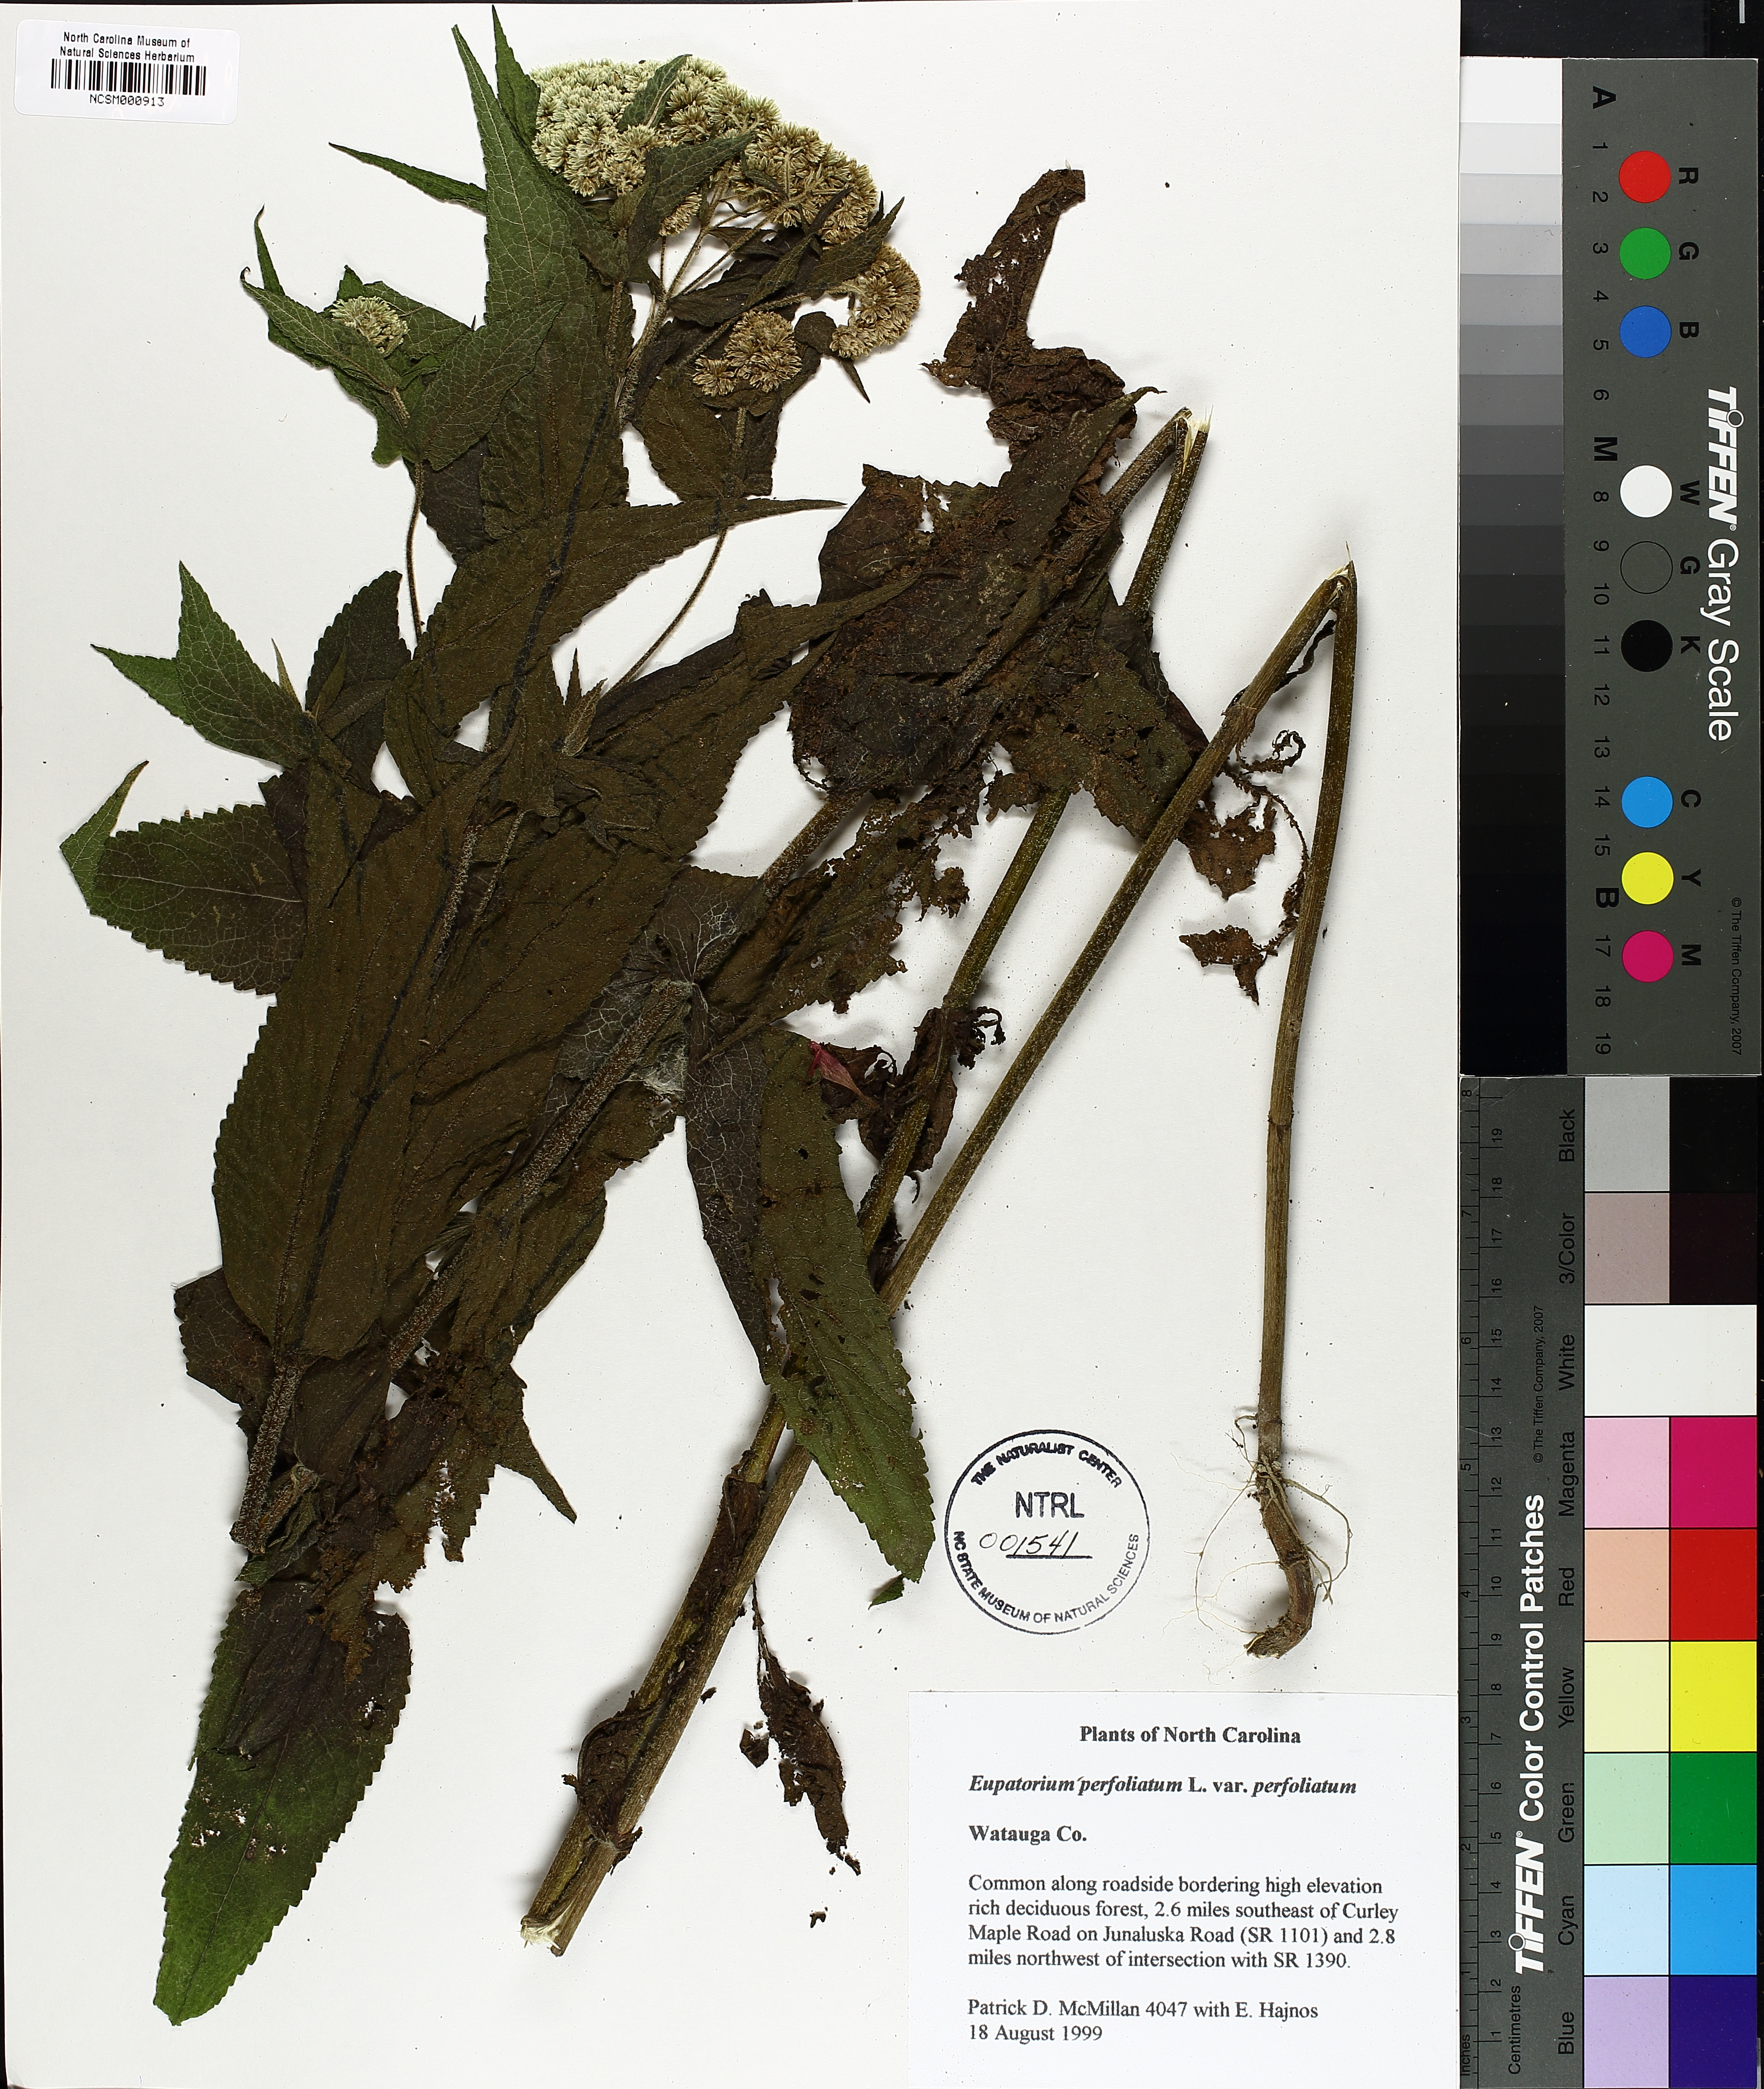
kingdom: Plantae
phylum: Tracheophyta
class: Magnoliopsida
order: Asterales
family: Asteraceae
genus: Eupatorium
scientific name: Eupatorium perfoliatum
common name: Boneset
